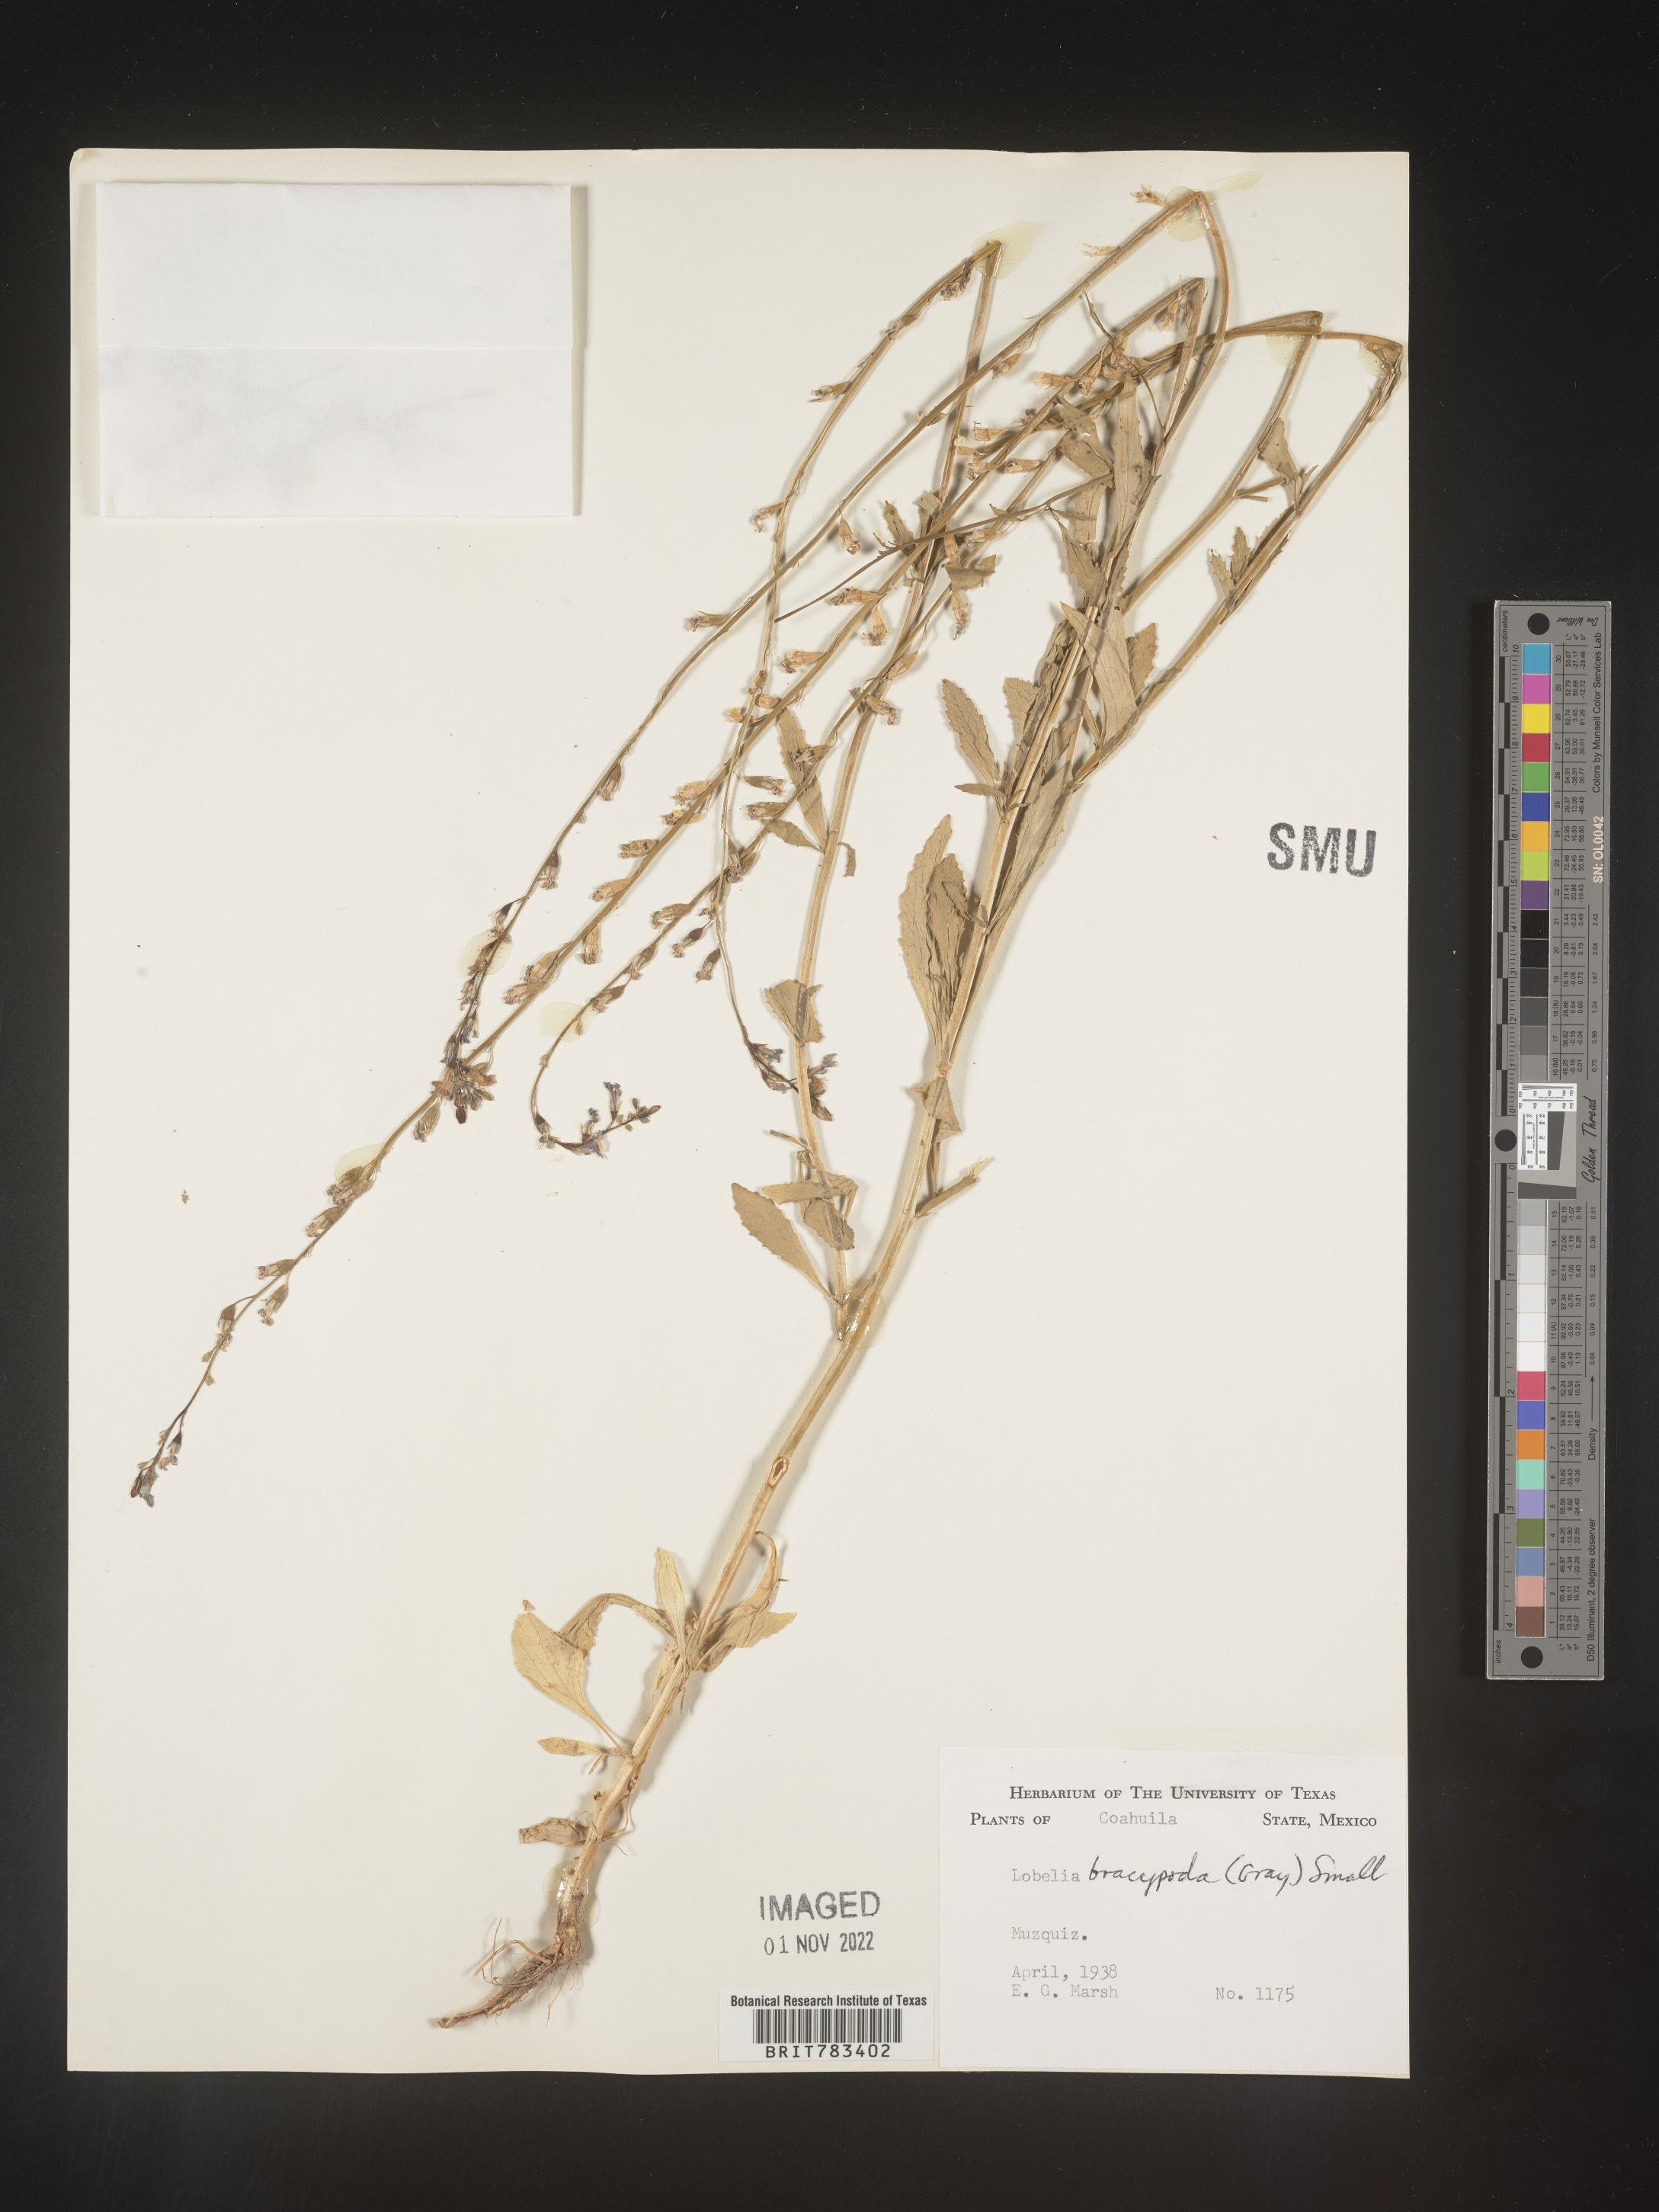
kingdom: Plantae
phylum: Tracheophyta
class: Magnoliopsida
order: Asterales
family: Campanulaceae
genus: Lobelia
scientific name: Lobelia
